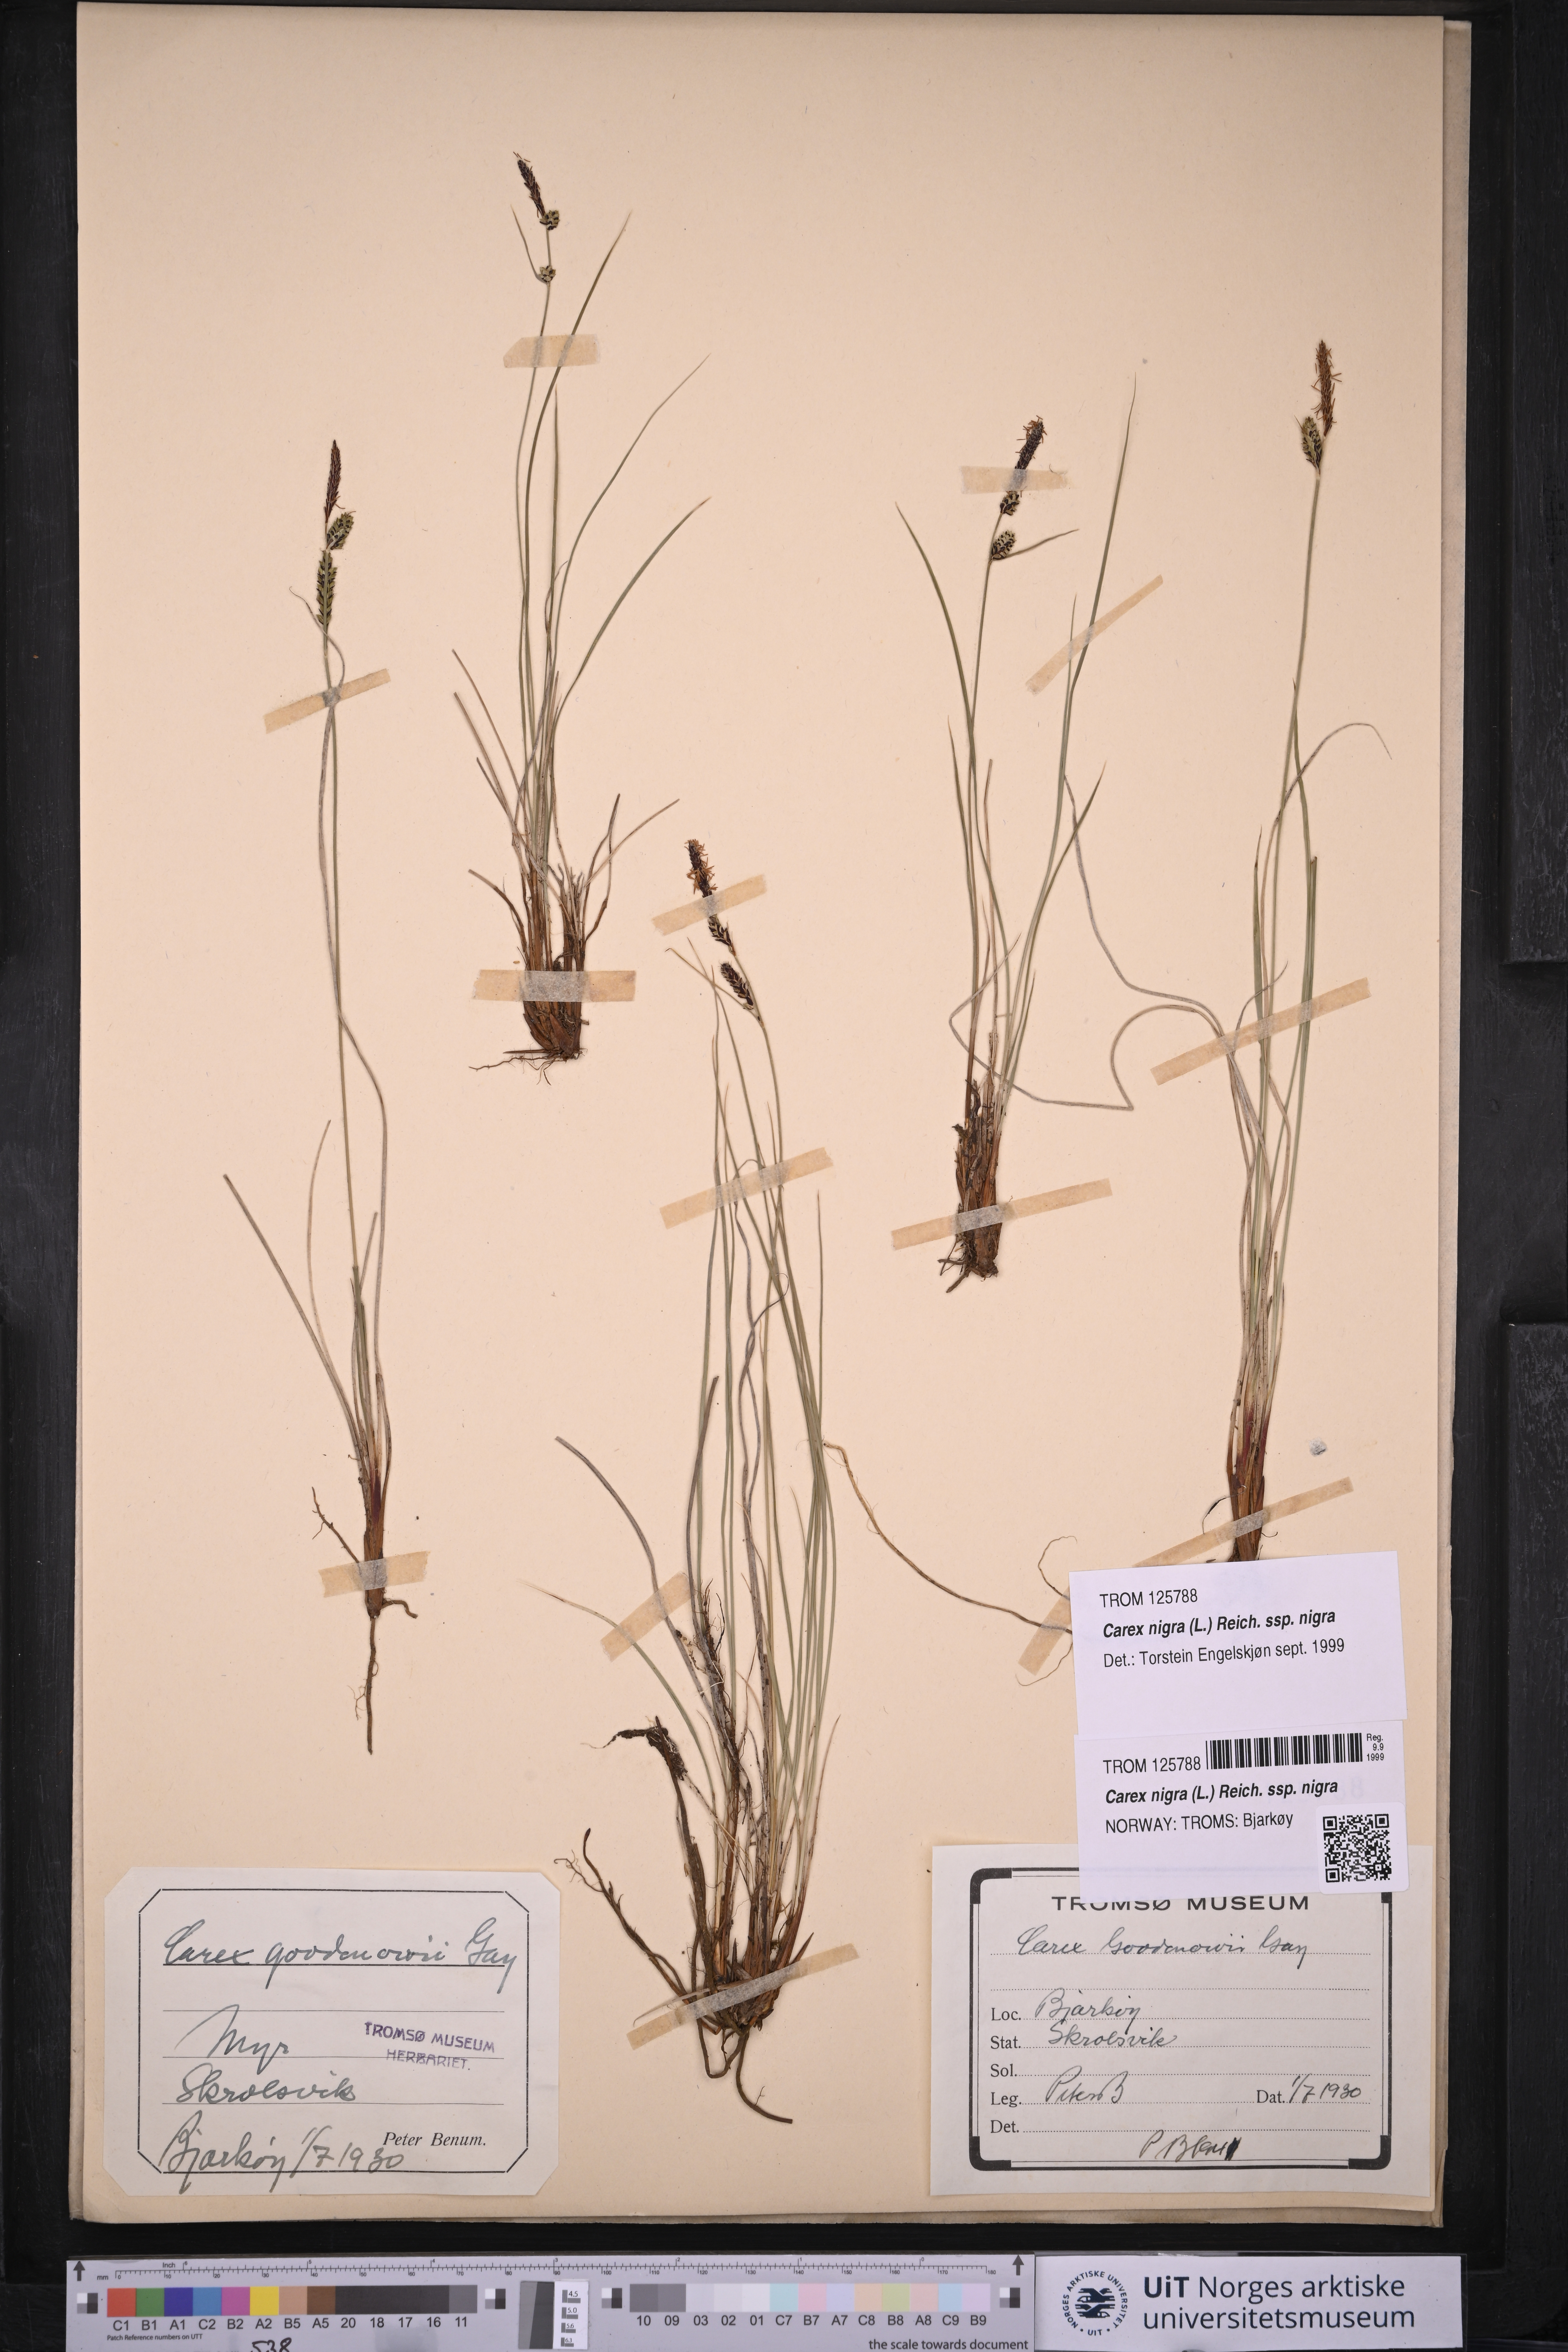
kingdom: Plantae
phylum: Tracheophyta
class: Liliopsida
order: Poales
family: Cyperaceae
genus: Carex
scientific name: Carex nigra
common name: Common sedge
